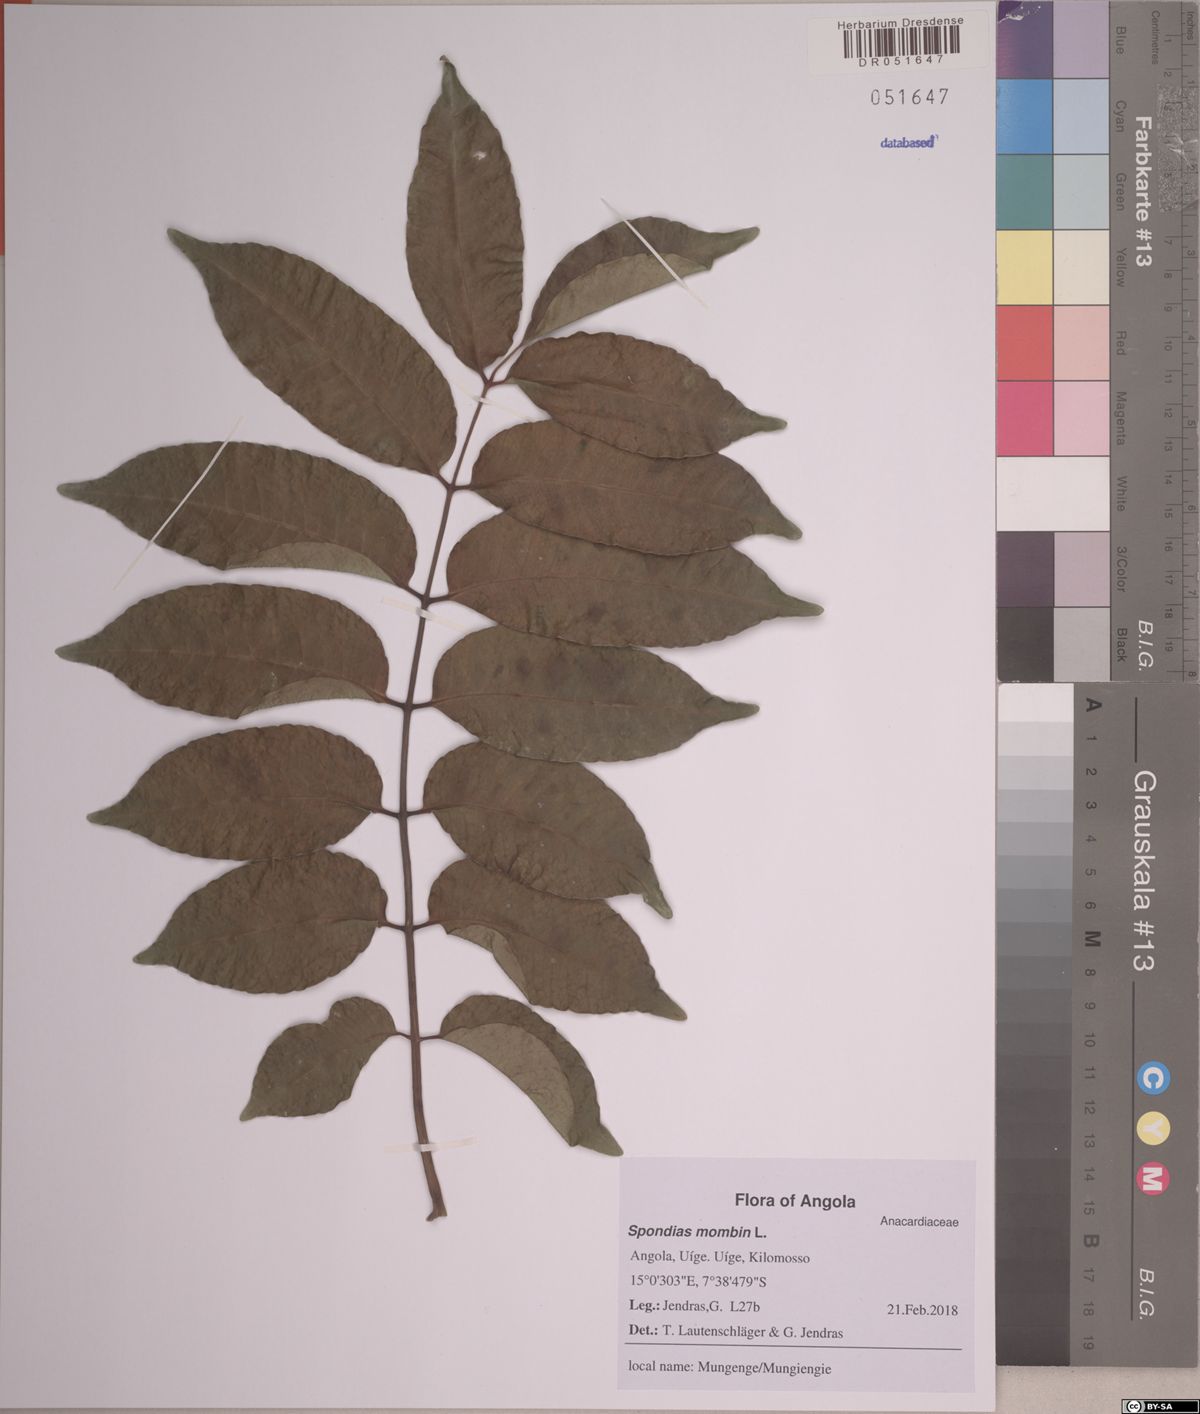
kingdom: Plantae
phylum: Tracheophyta
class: Magnoliopsida
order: Sapindales
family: Anacardiaceae
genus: Spondias
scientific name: Spondias mombin
